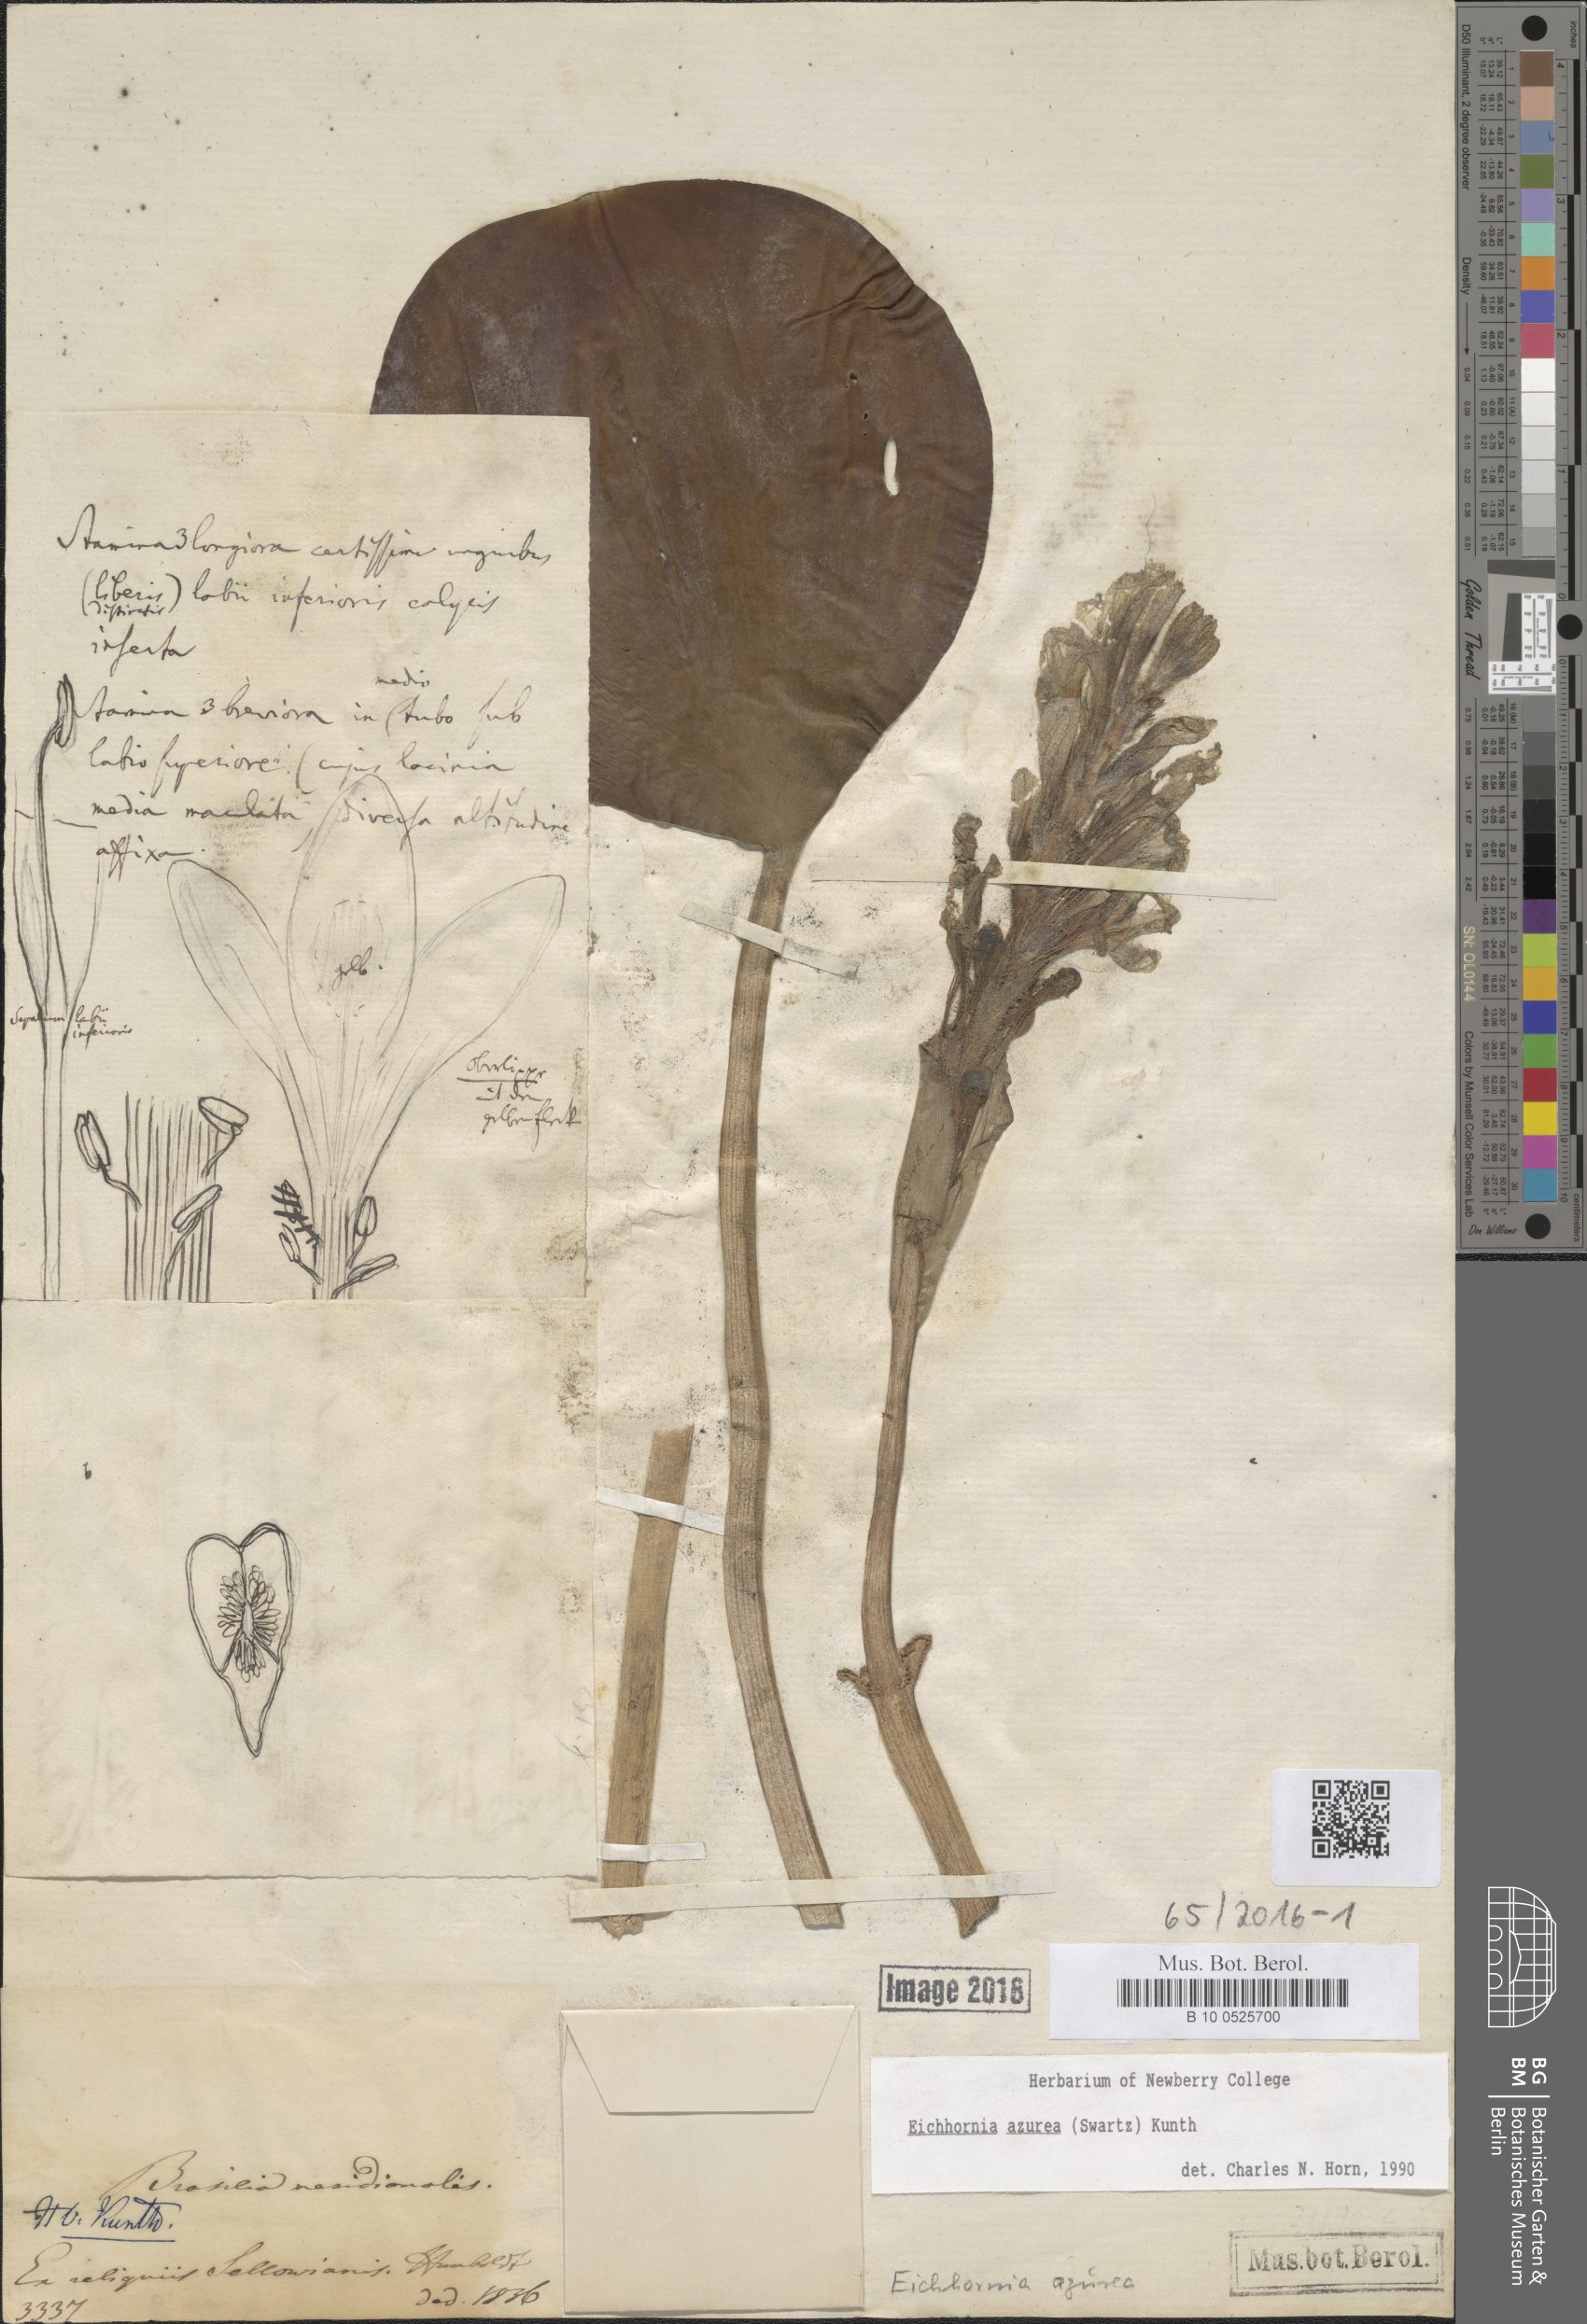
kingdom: Plantae
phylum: Tracheophyta
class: Liliopsida
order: Commelinales
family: Pontederiaceae
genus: Pontederia
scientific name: Pontederia
